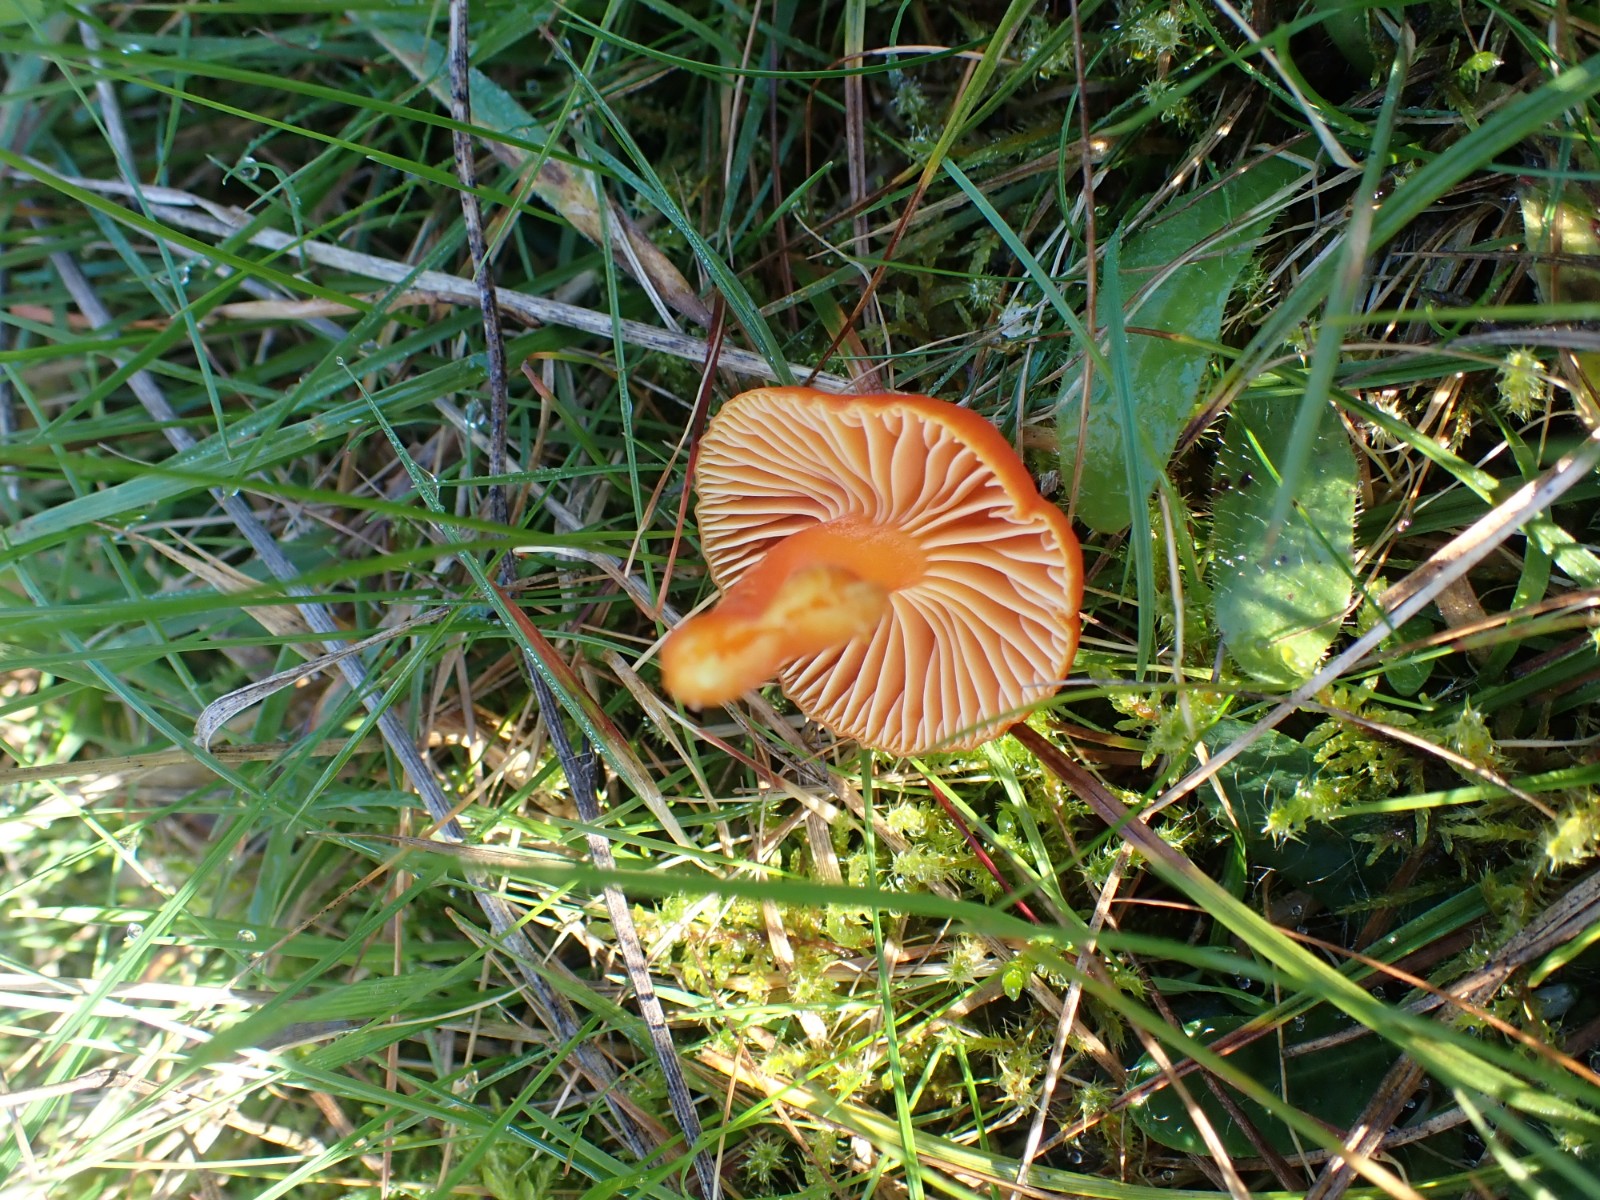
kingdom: Fungi
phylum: Basidiomycota
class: Agaricomycetes
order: Agaricales
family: Hygrophoraceae
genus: Hygrocybe
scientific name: Hygrocybe reidii
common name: honning-vokshat
